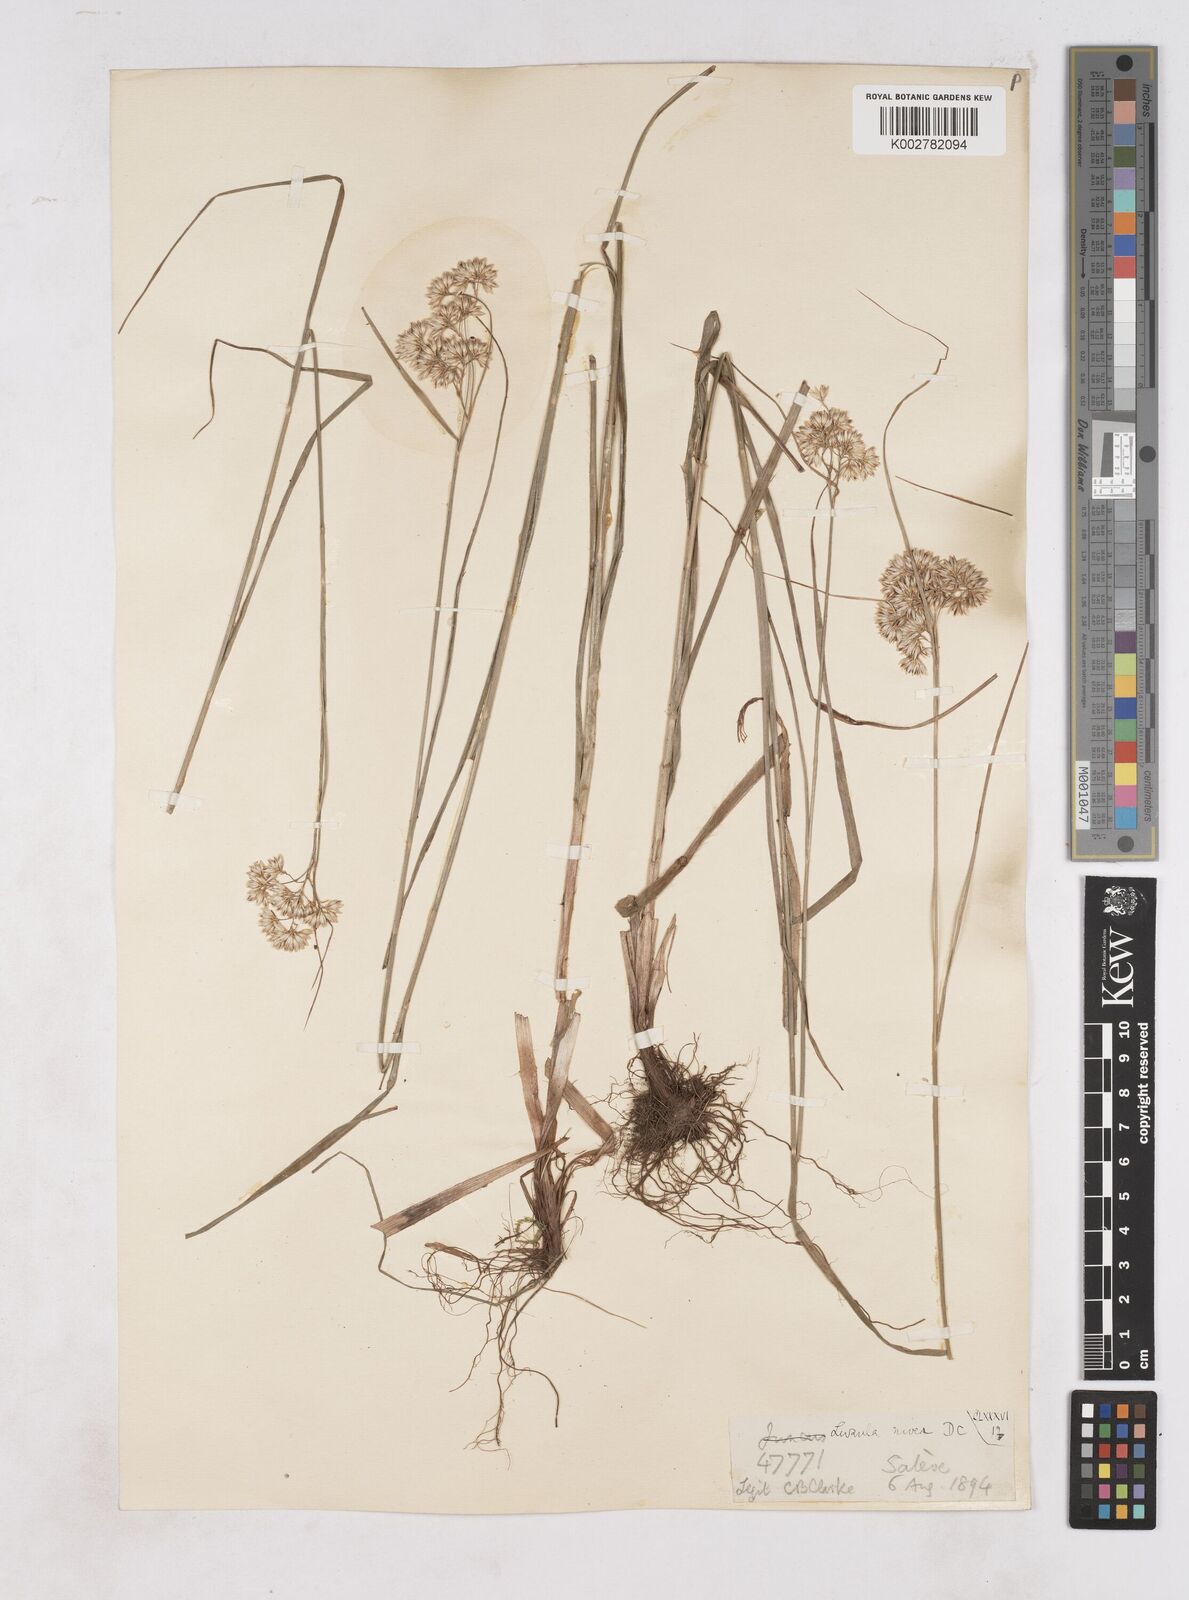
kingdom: Plantae
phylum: Tracheophyta
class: Liliopsida
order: Poales
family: Juncaceae
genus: Luzula
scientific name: Luzula nivea
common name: Snow-white wood-rush
